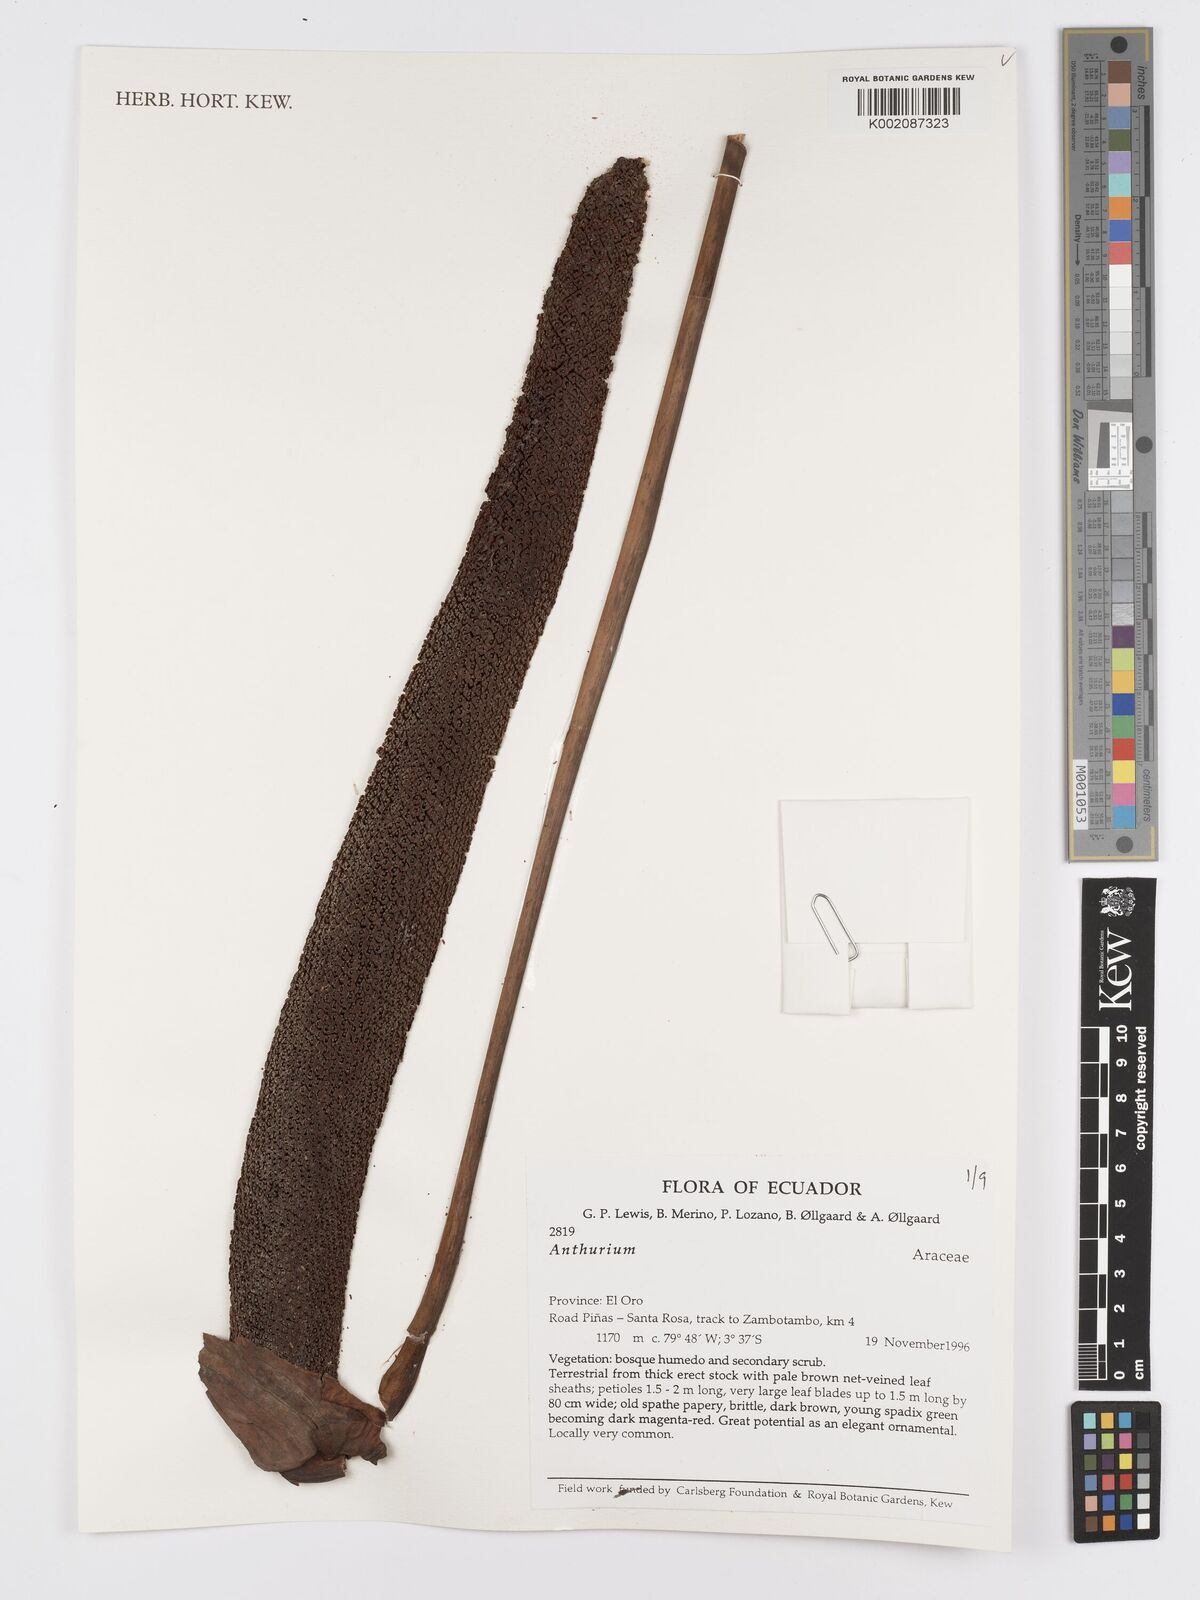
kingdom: Plantae
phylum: Tracheophyta
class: Liliopsida
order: Alismatales
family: Araceae
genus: Anthurium
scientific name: Anthurium
